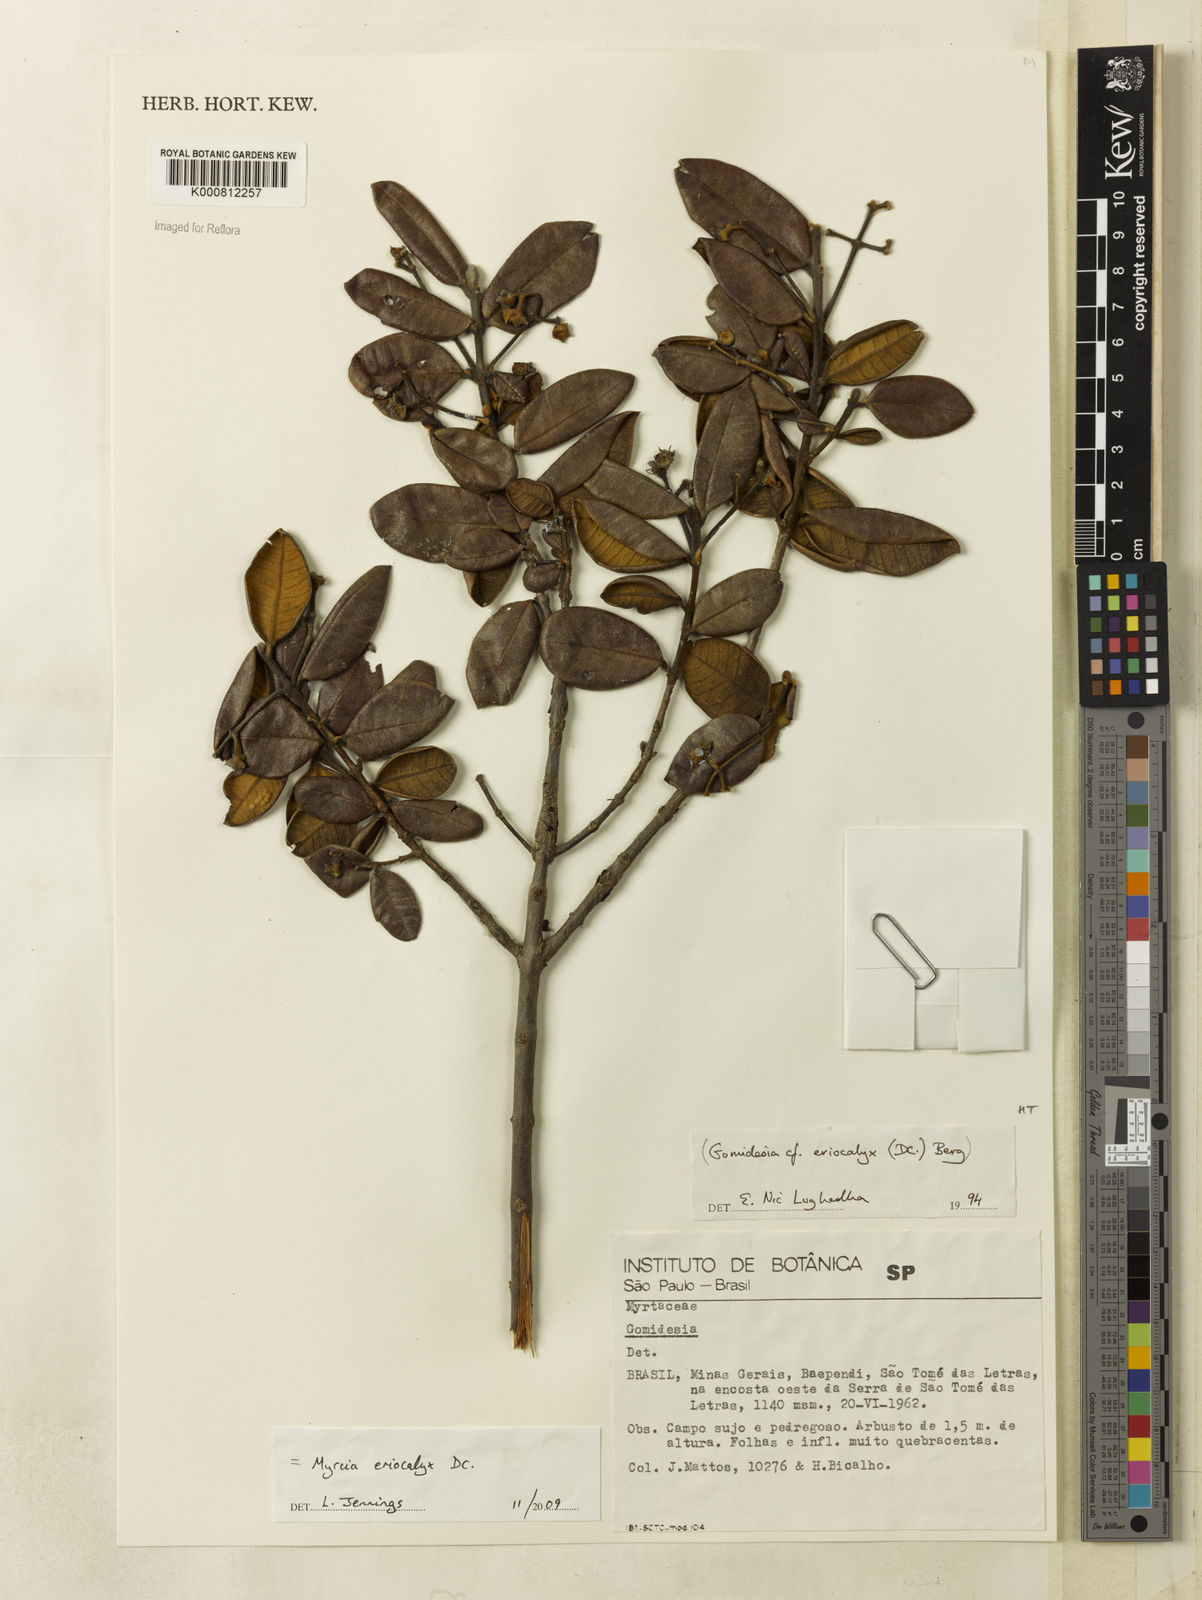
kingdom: Plantae
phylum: Tracheophyta
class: Magnoliopsida
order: Myrtales
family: Myrtaceae
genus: Myrcia
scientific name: Myrcia eriocalyx
